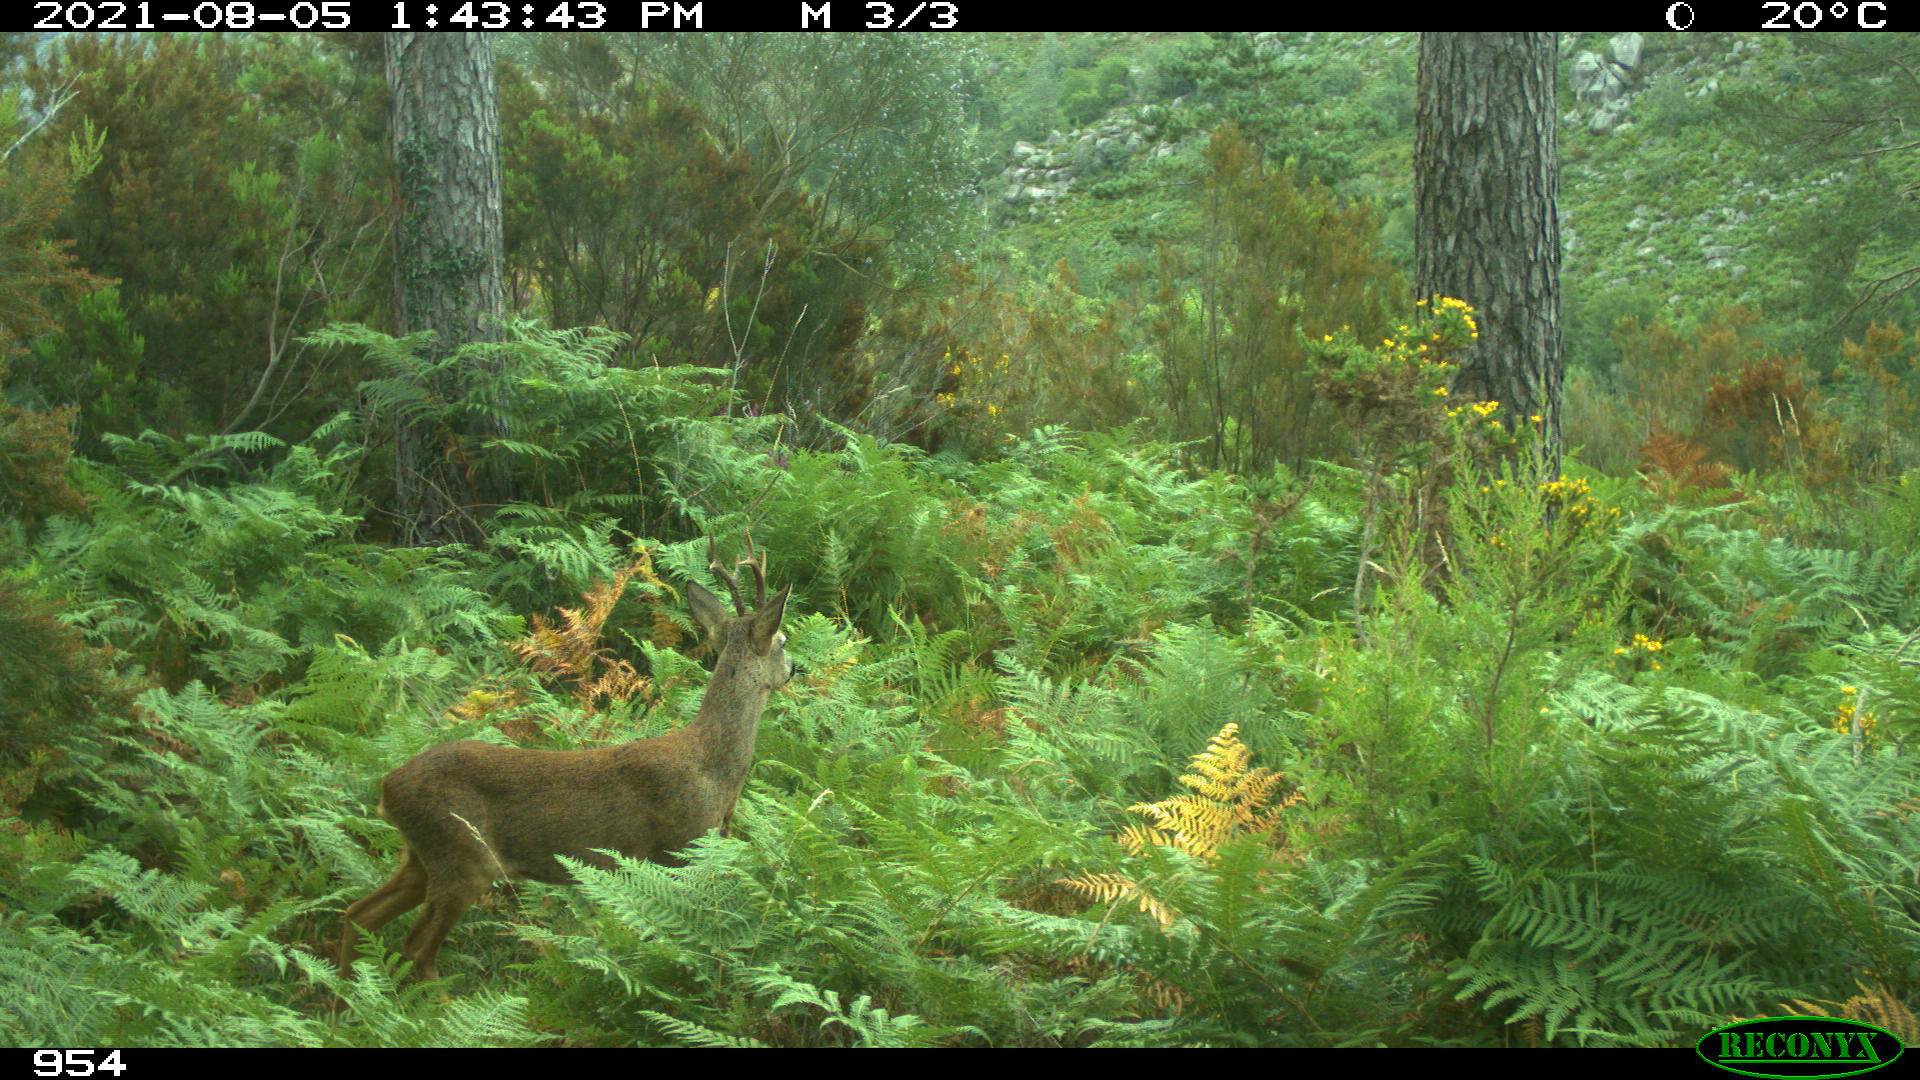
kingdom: Animalia
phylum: Chordata
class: Mammalia
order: Artiodactyla
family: Cervidae
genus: Capreolus
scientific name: Capreolus capreolus
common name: Western roe deer
